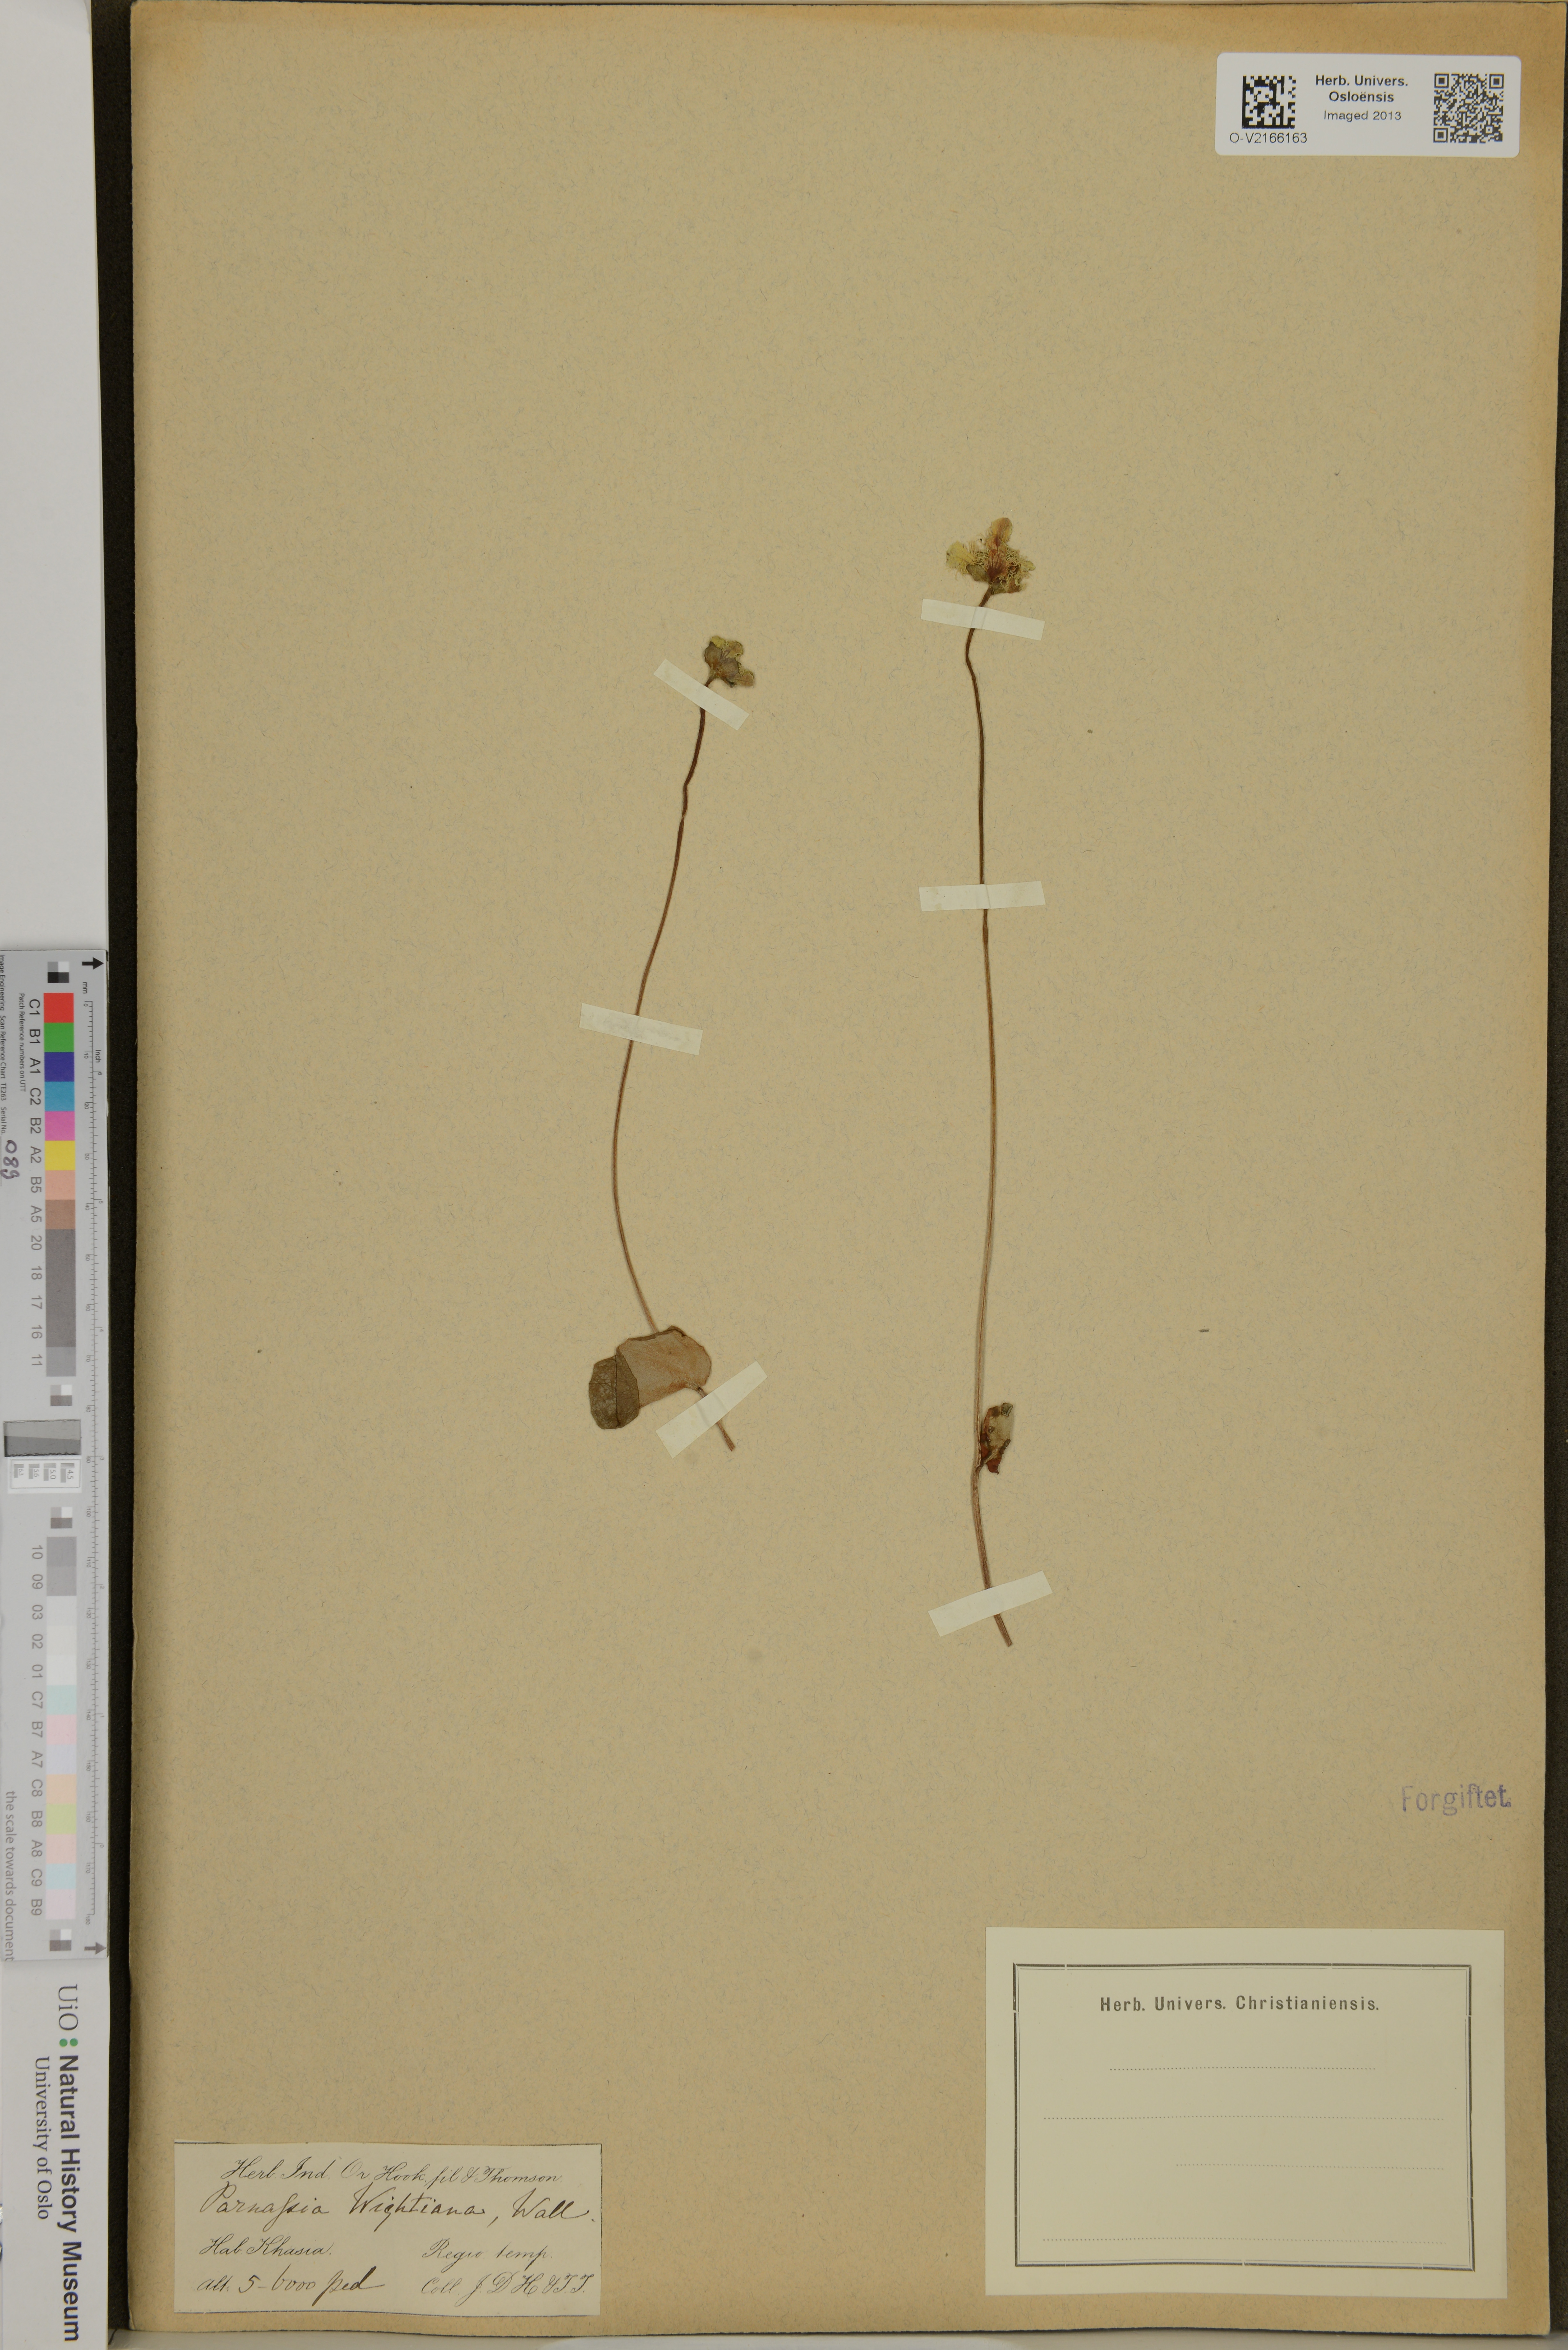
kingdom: Plantae
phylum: Tracheophyta
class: Magnoliopsida
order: Celastrales
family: Parnassiaceae
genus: Parnassia
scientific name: Parnassia wightiana
